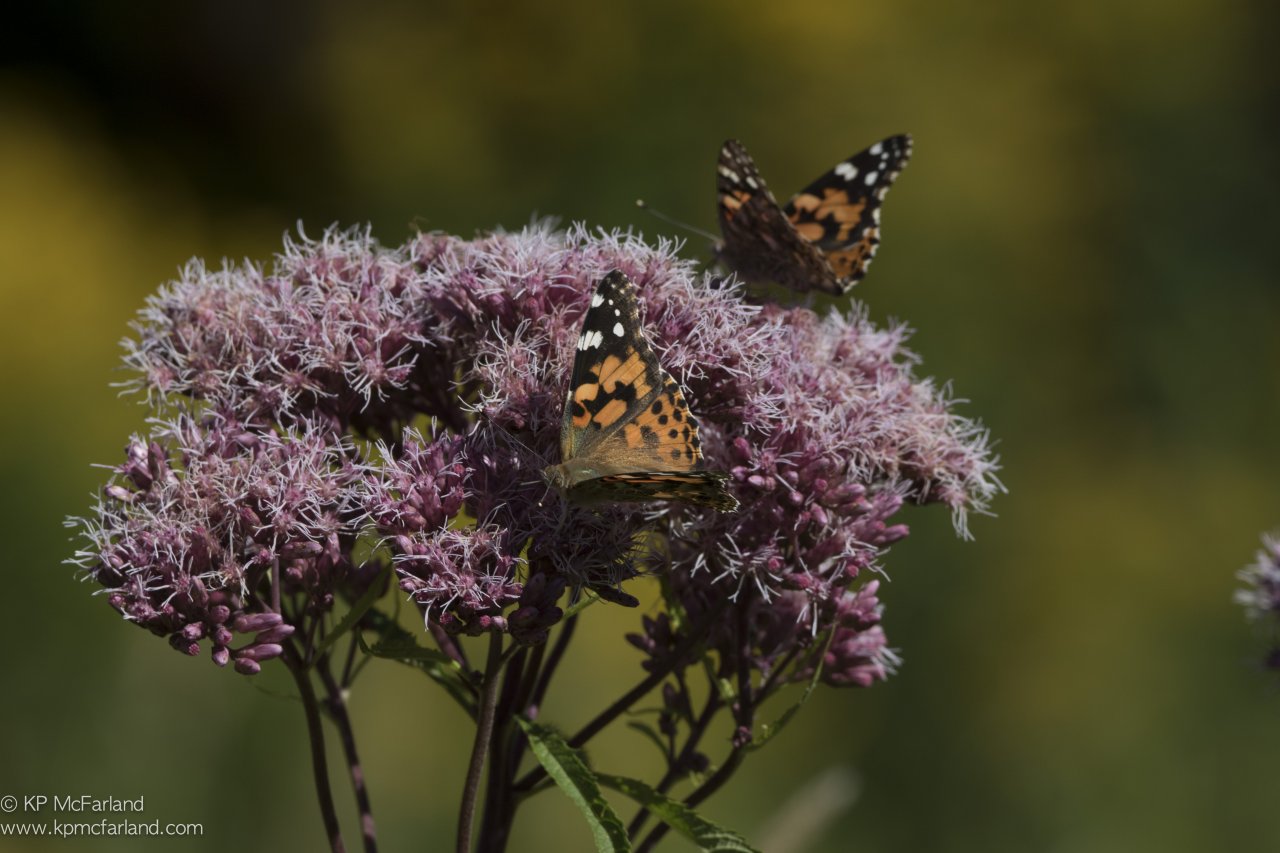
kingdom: Animalia
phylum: Arthropoda
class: Insecta
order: Lepidoptera
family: Nymphalidae
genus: Vanessa
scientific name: Vanessa cardui
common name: Painted Lady
